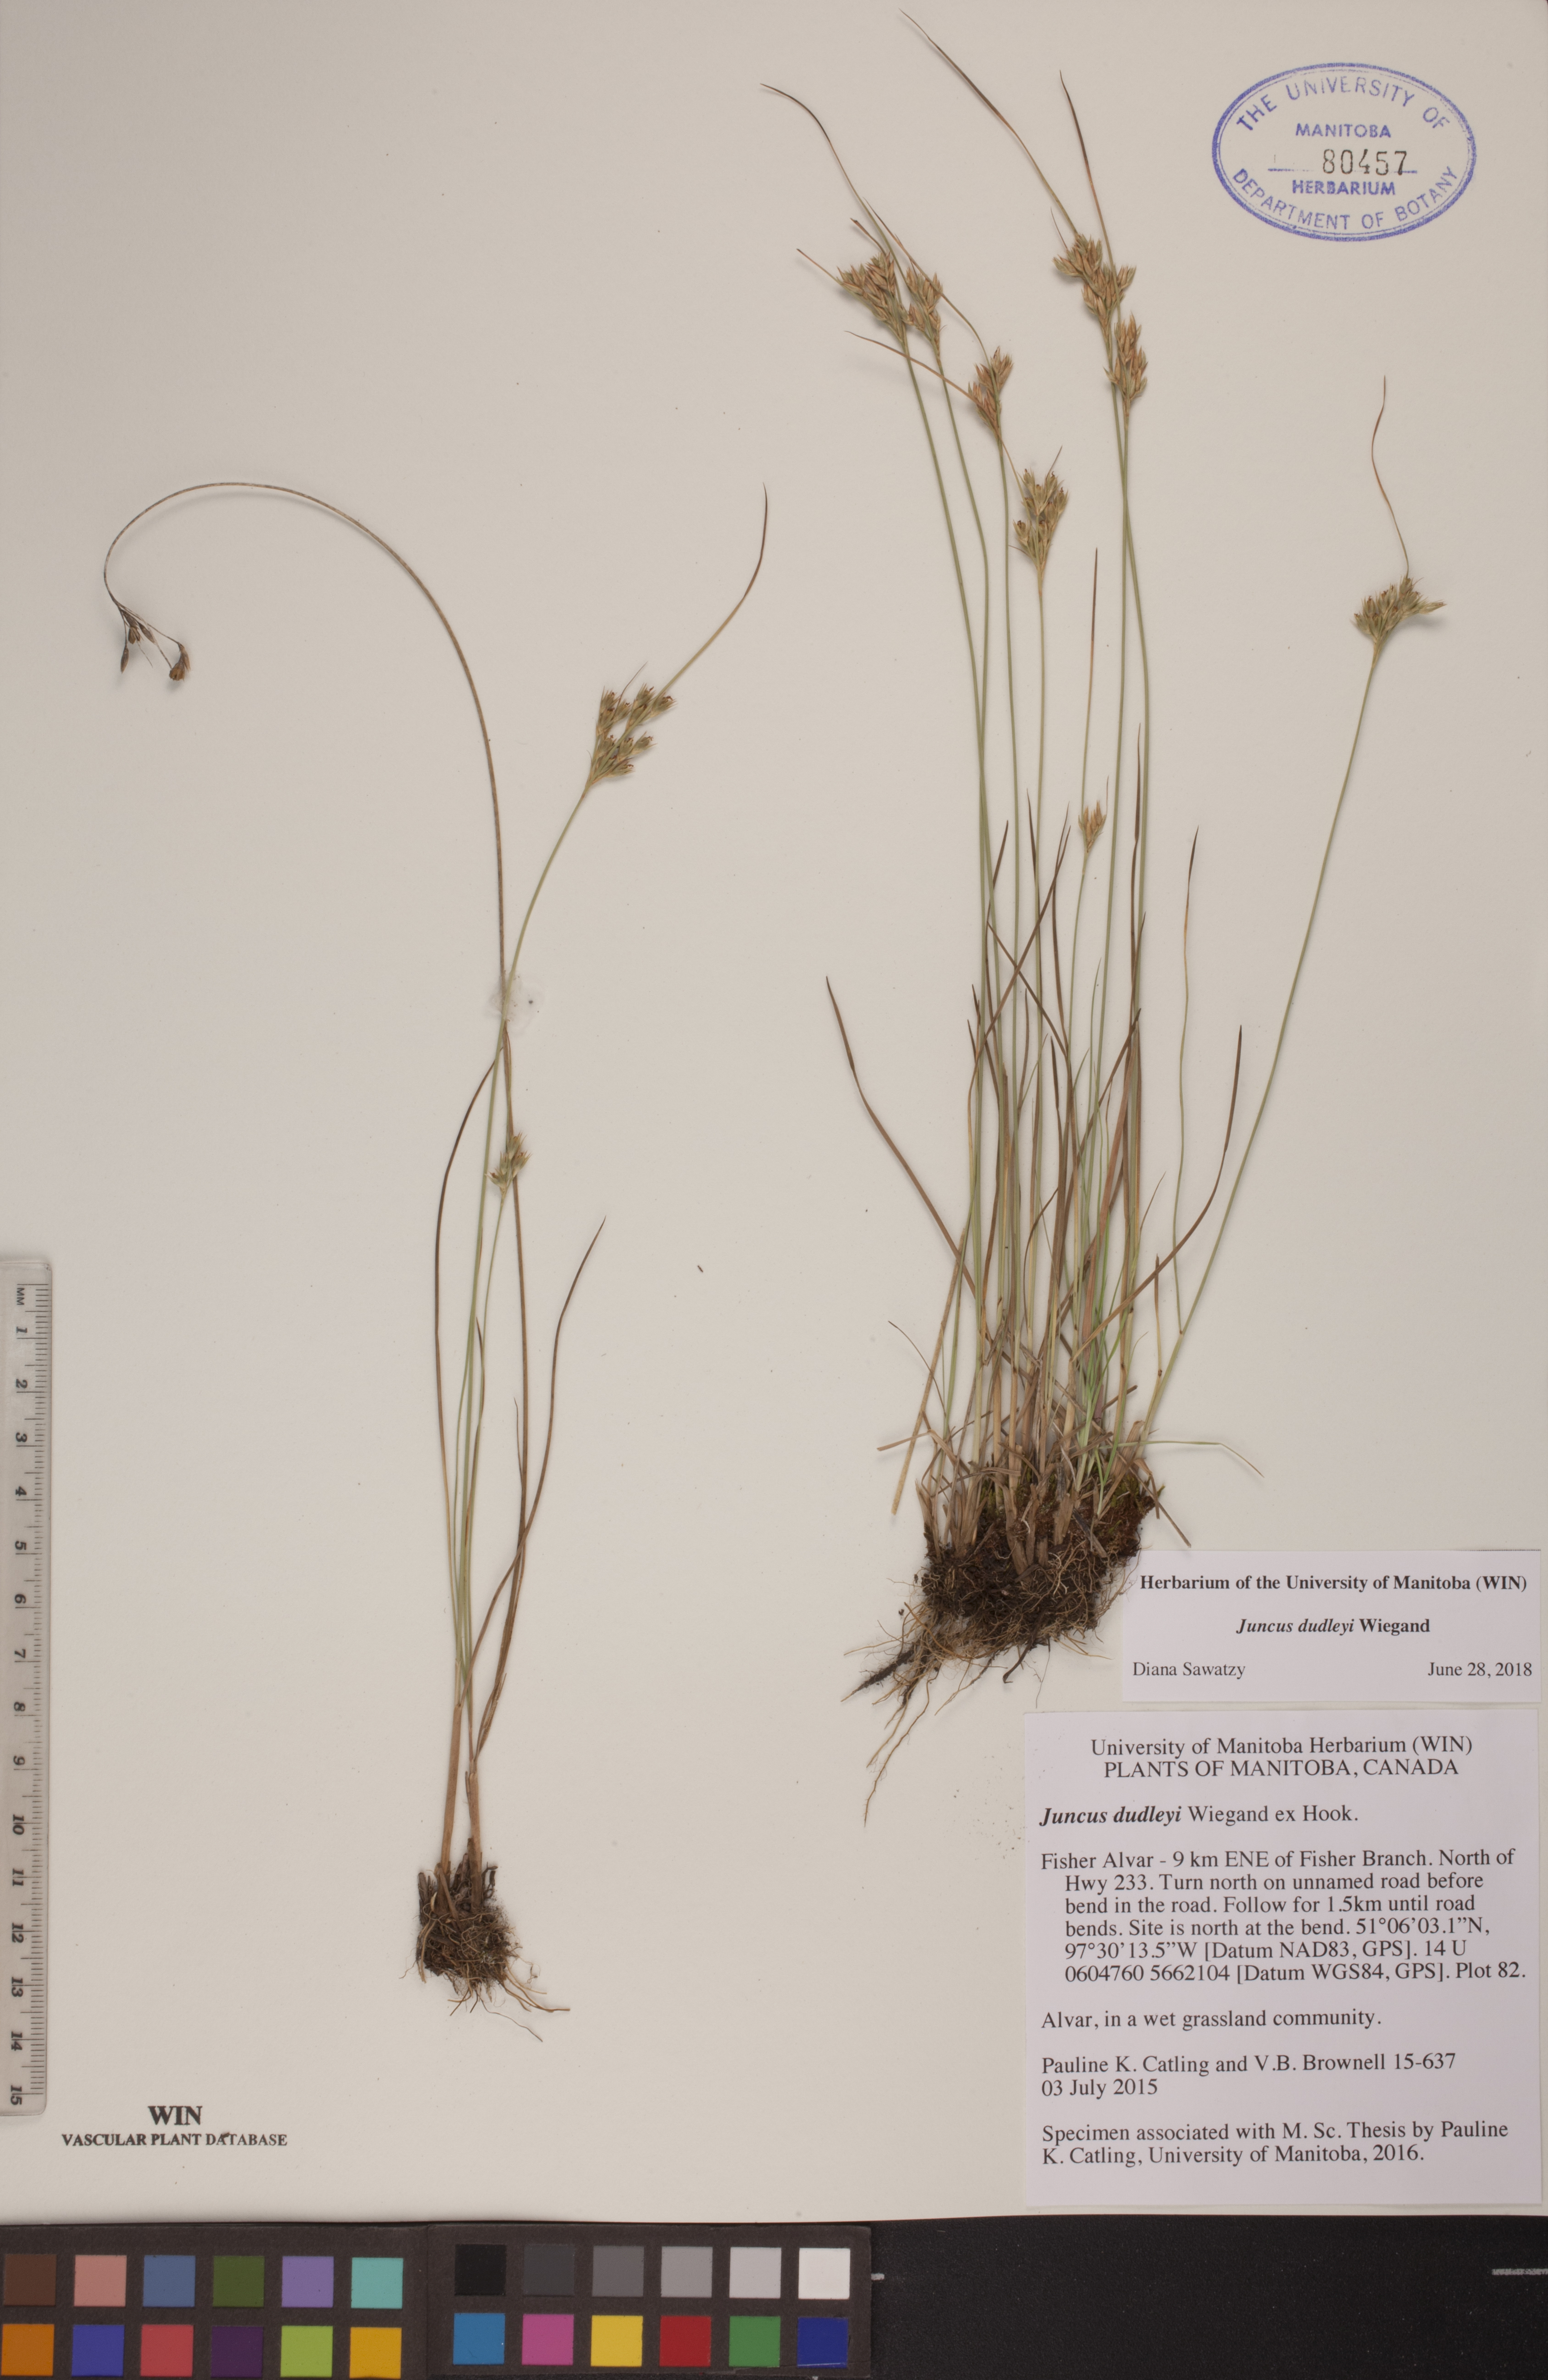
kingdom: Plantae
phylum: Tracheophyta
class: Liliopsida
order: Poales
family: Juncaceae
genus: Juncus
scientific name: Juncus dudleyi
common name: Dudley's rush
